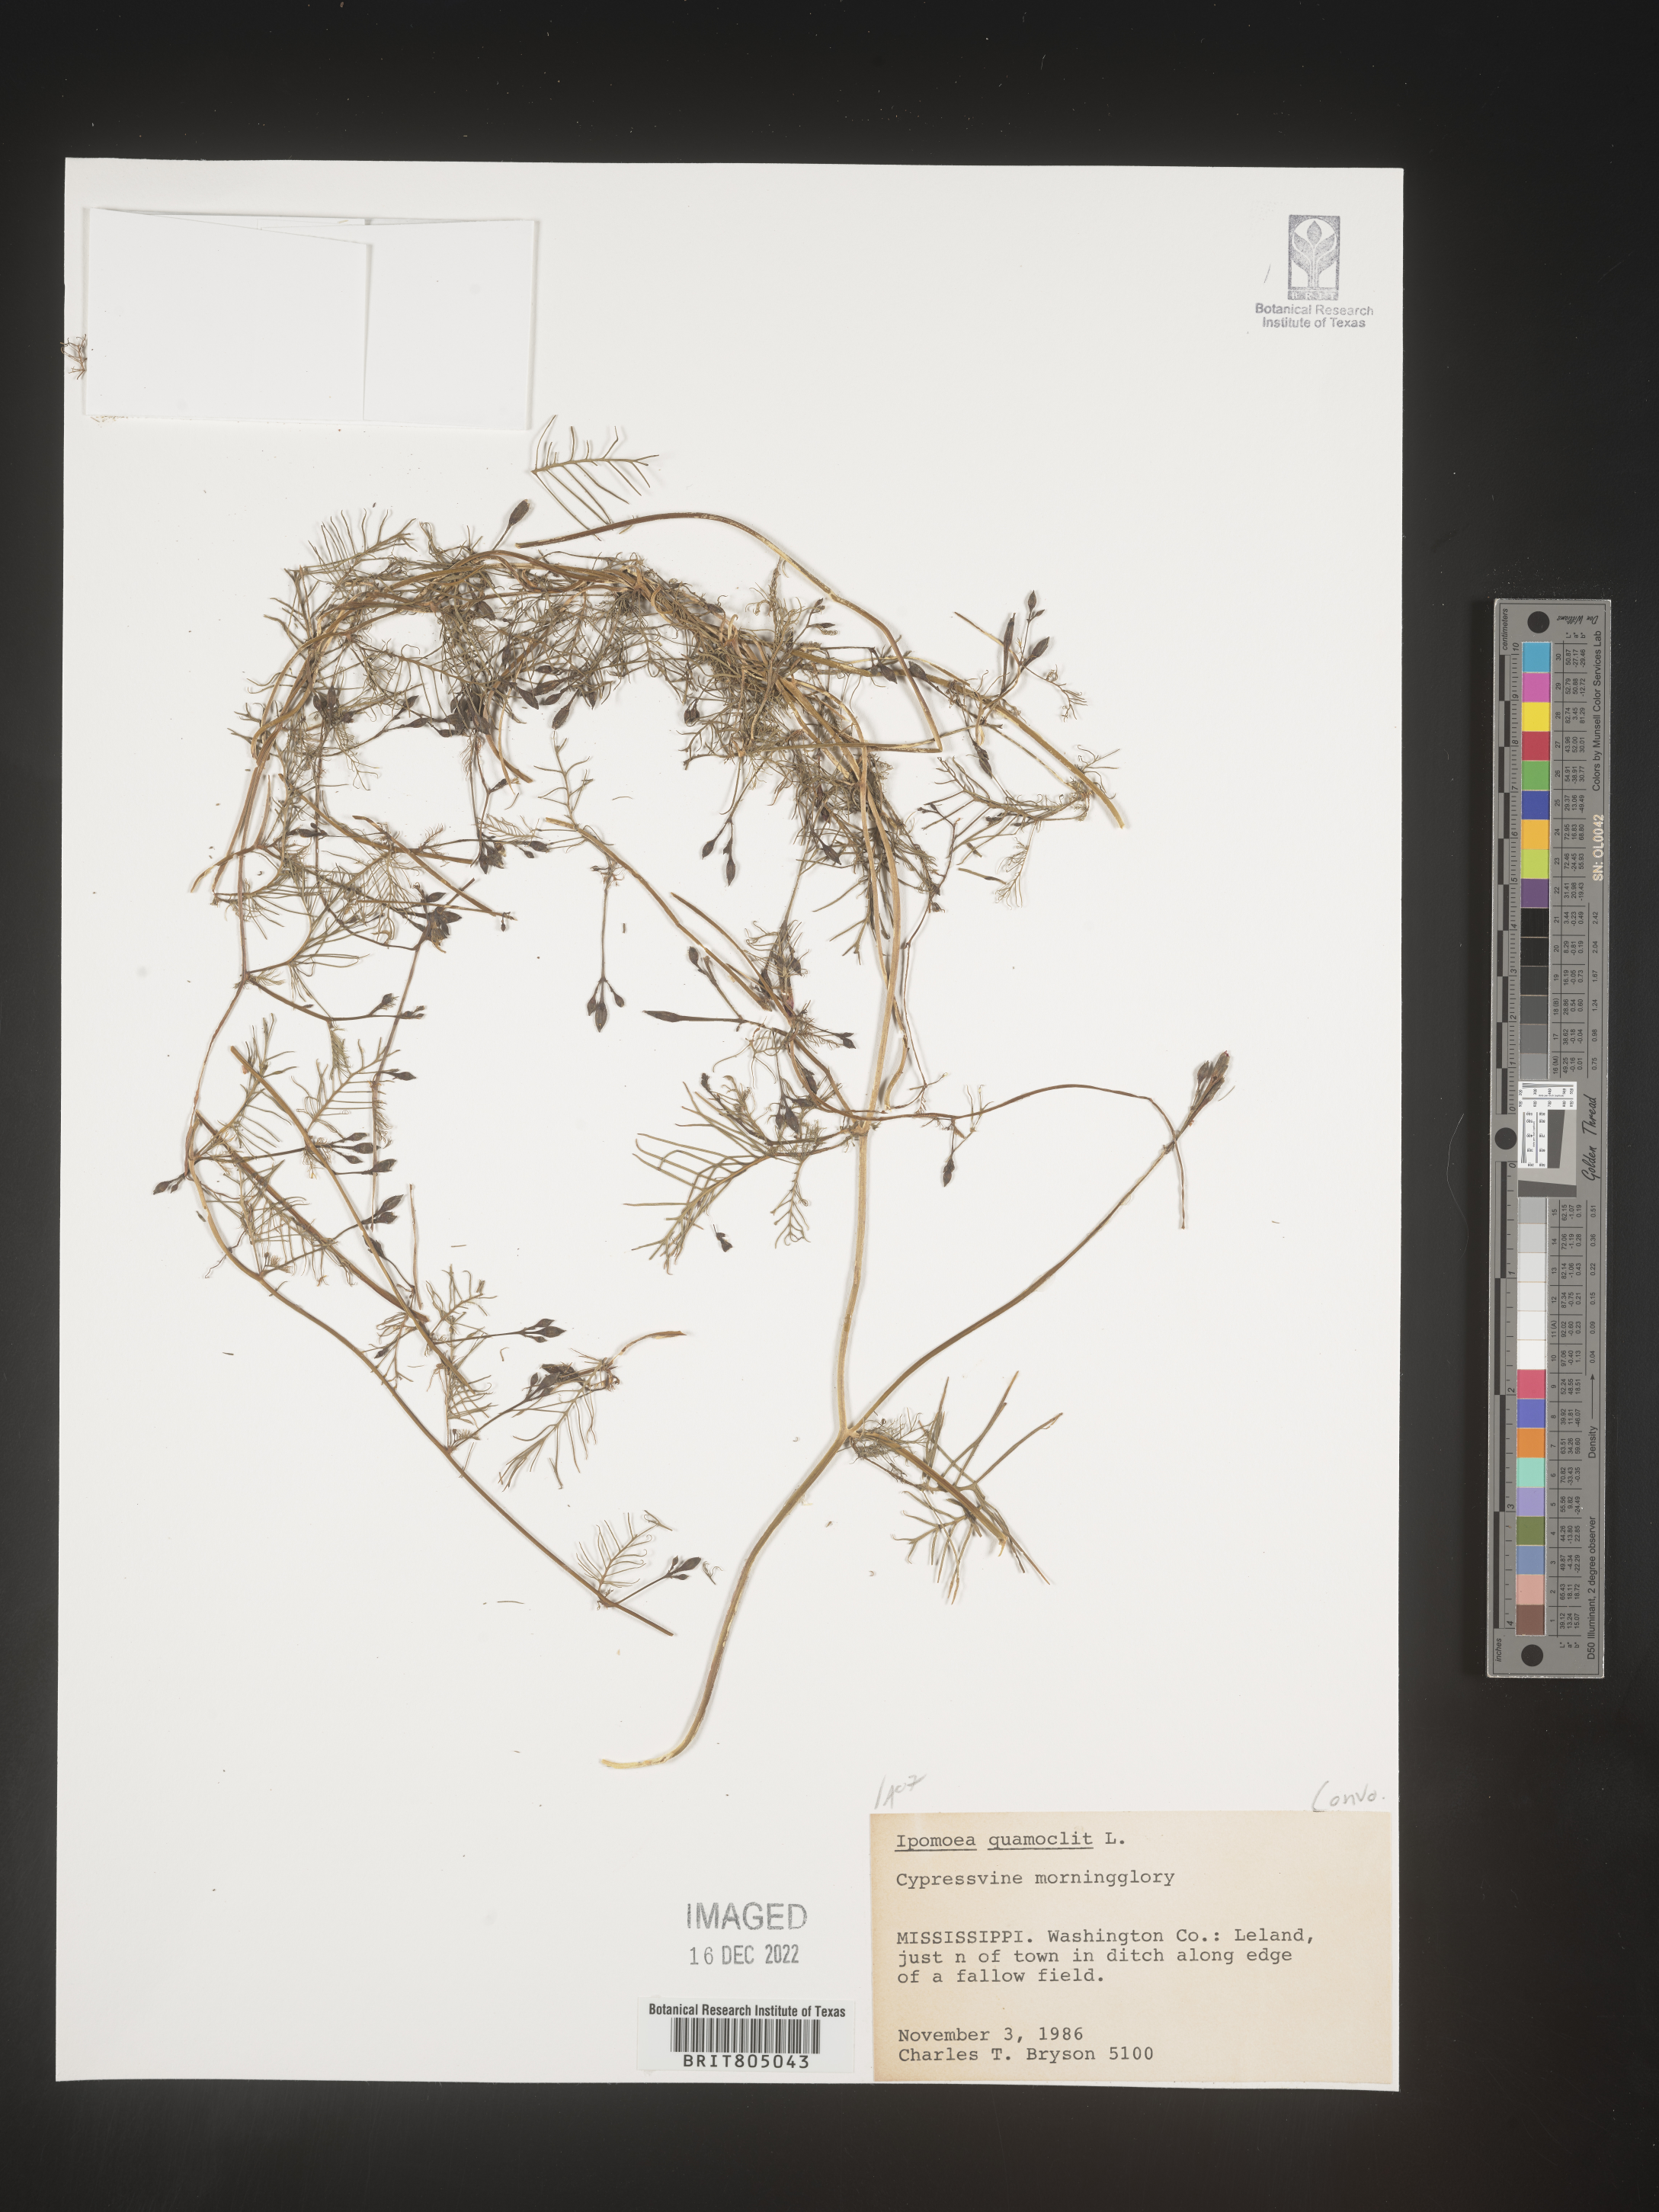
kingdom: Plantae
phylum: Tracheophyta
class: Magnoliopsida
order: Solanales
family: Convolvulaceae
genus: Ipomoea
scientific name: Ipomoea quamoclit
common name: Cypress vine
